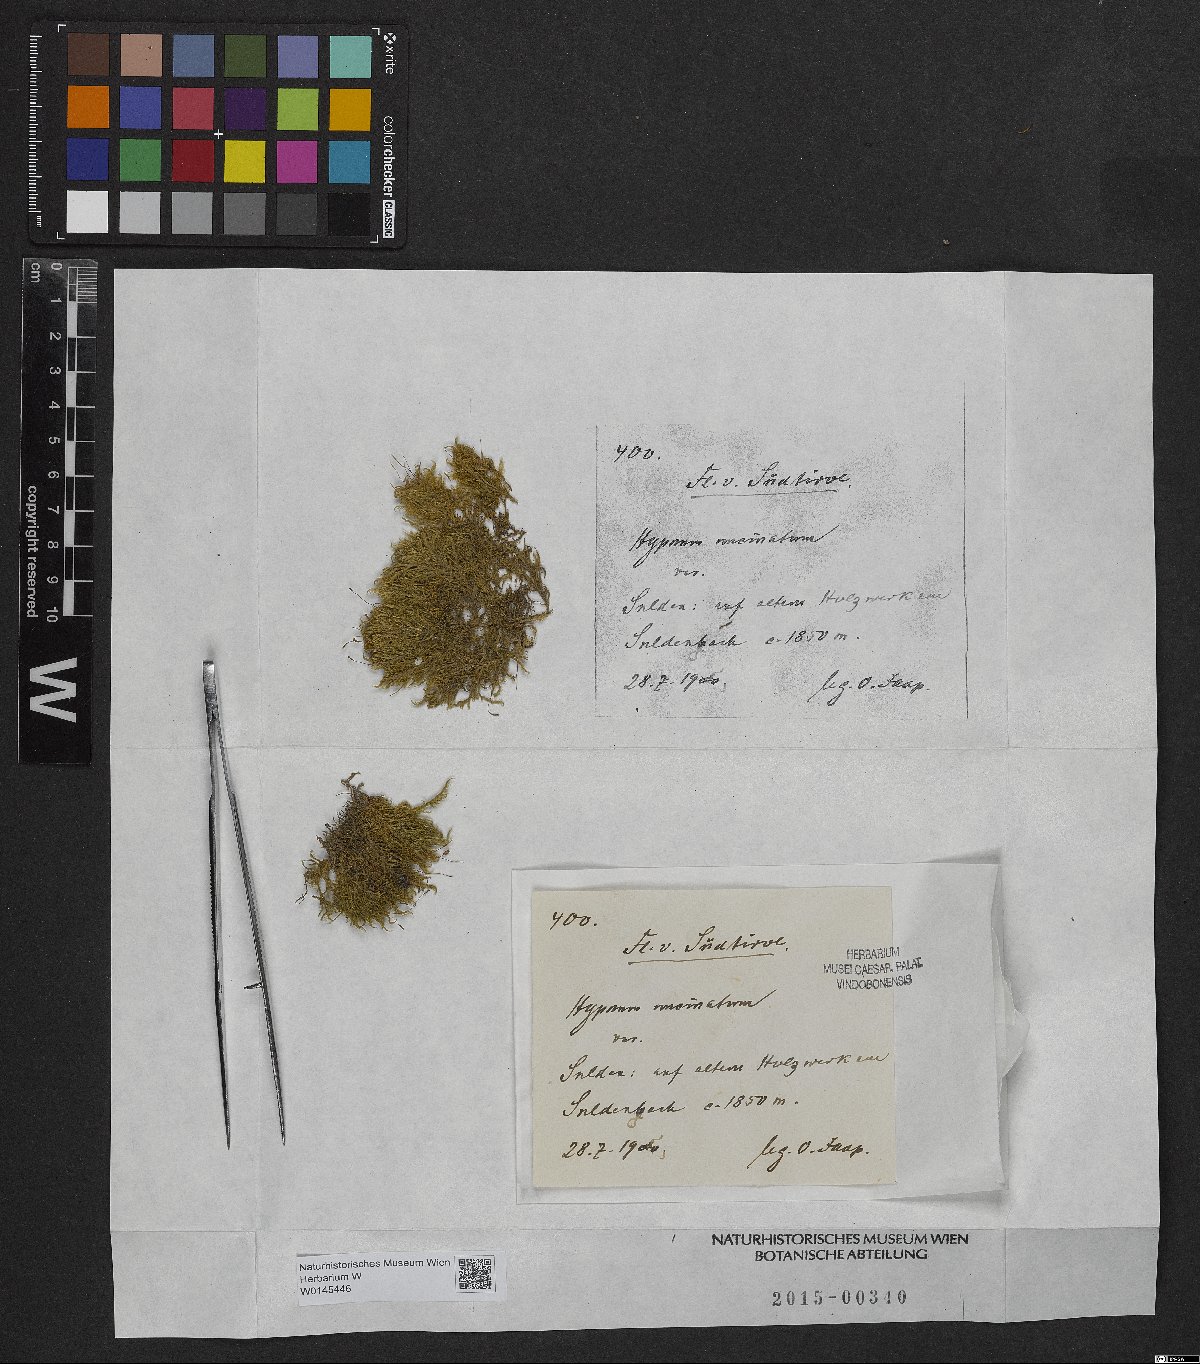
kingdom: Plantae
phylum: Bryophyta
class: Bryopsida
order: Hypnales
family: Scorpidiaceae
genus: Sanionia
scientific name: Sanionia uncinata
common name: Sickle moss
